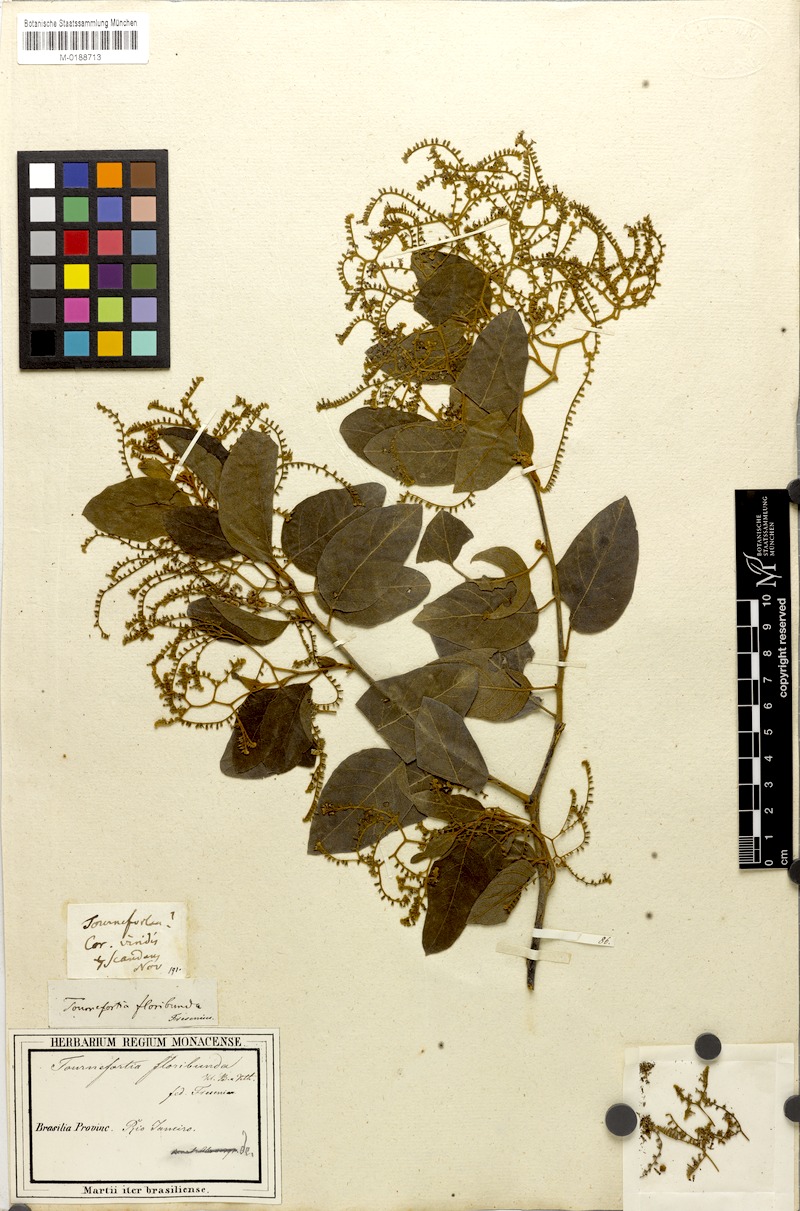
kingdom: Plantae
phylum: Tracheophyta
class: Magnoliopsida
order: Boraginales
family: Heliotropiaceae
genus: Myriopus
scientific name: Myriopus membranaceus
